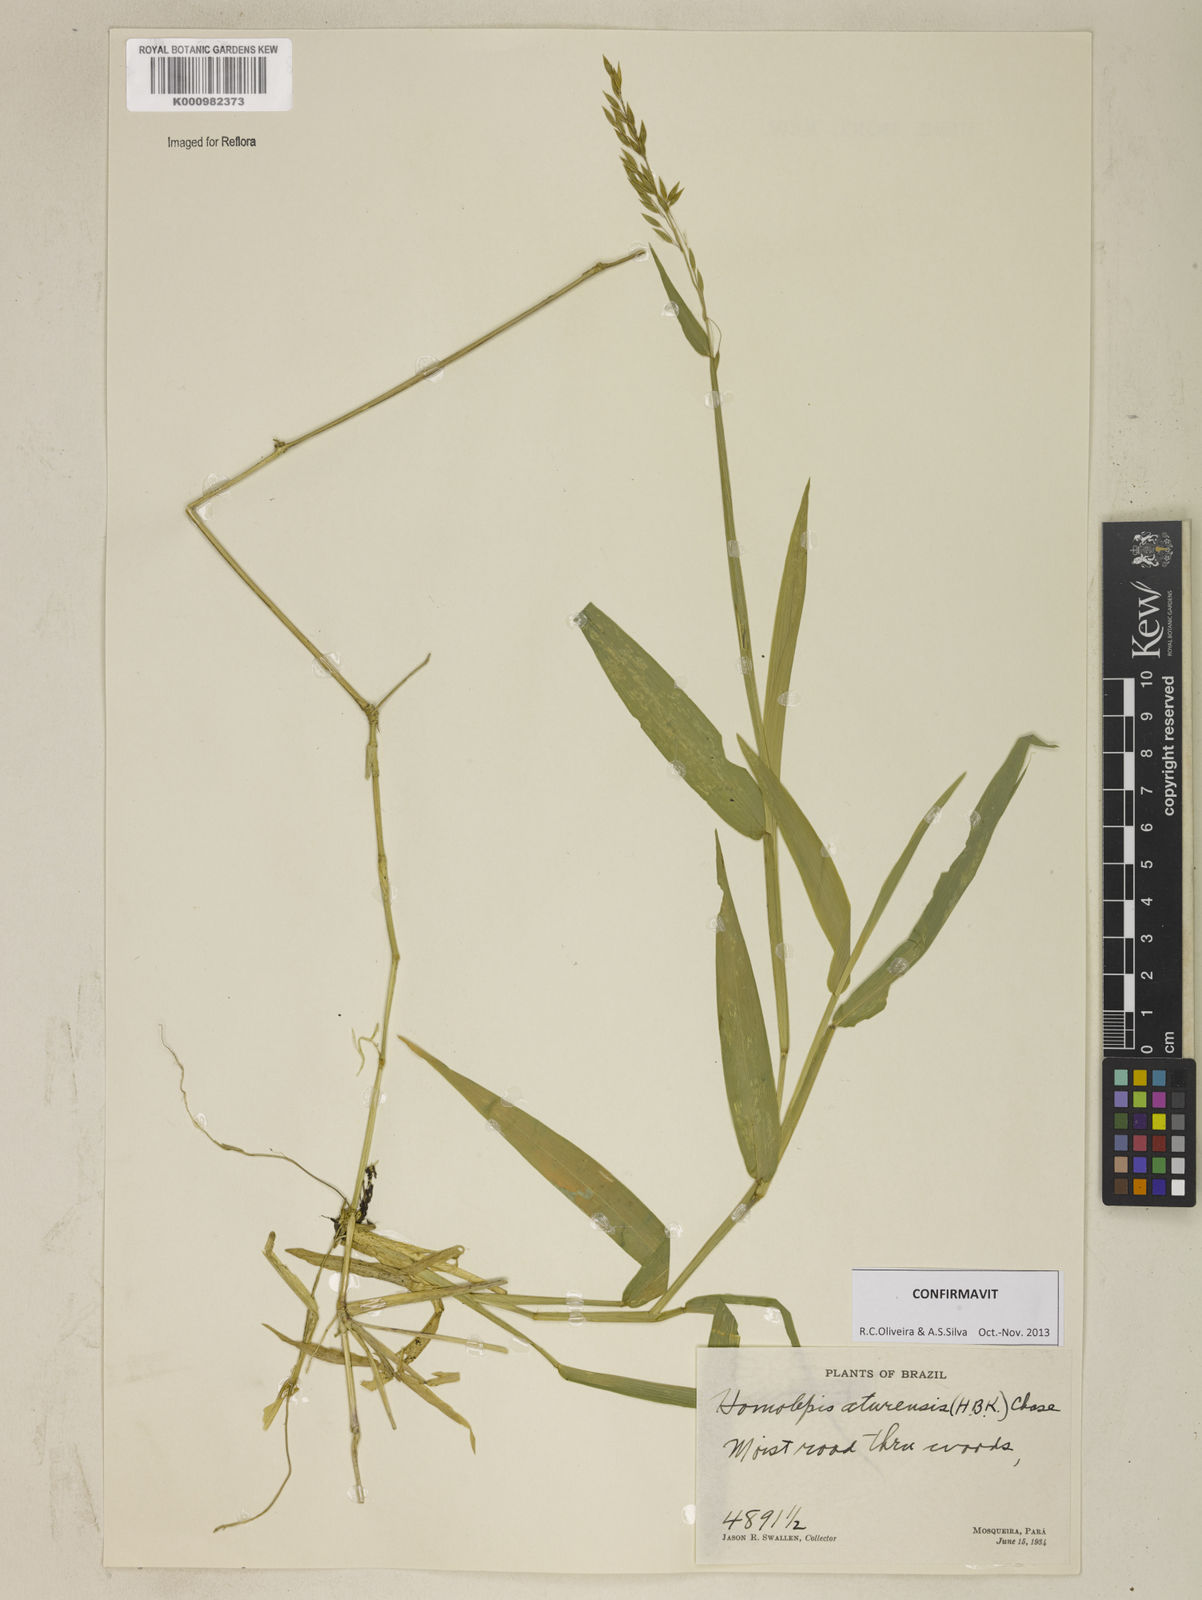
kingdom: Plantae
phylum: Tracheophyta
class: Liliopsida
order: Poales
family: Poaceae
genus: Homolepis
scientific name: Homolepis aturensis
